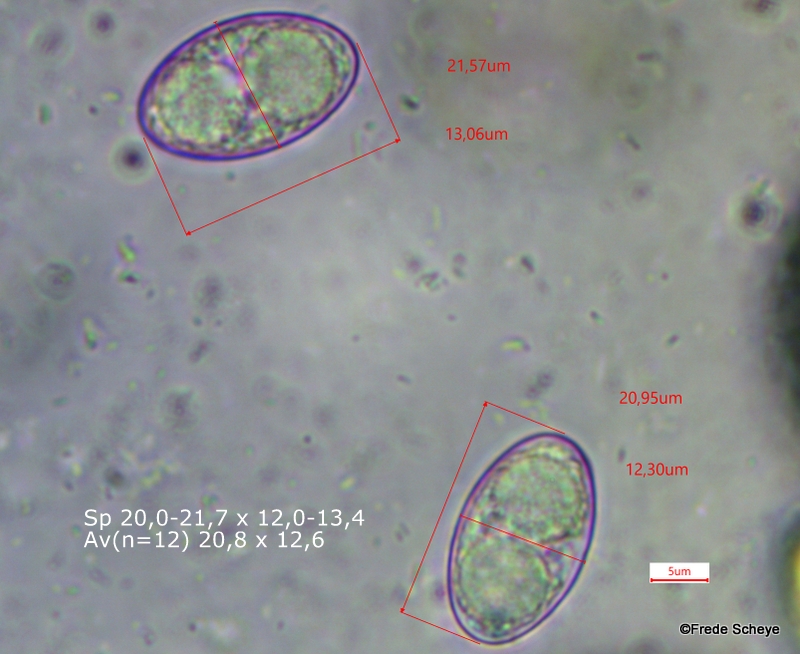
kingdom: Fungi
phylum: Ascomycota
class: Pezizomycetes
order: Pezizales
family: Pyronemataceae
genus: Tarzetta
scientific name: Tarzetta cupularis
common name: gulbrun pokalbæger
